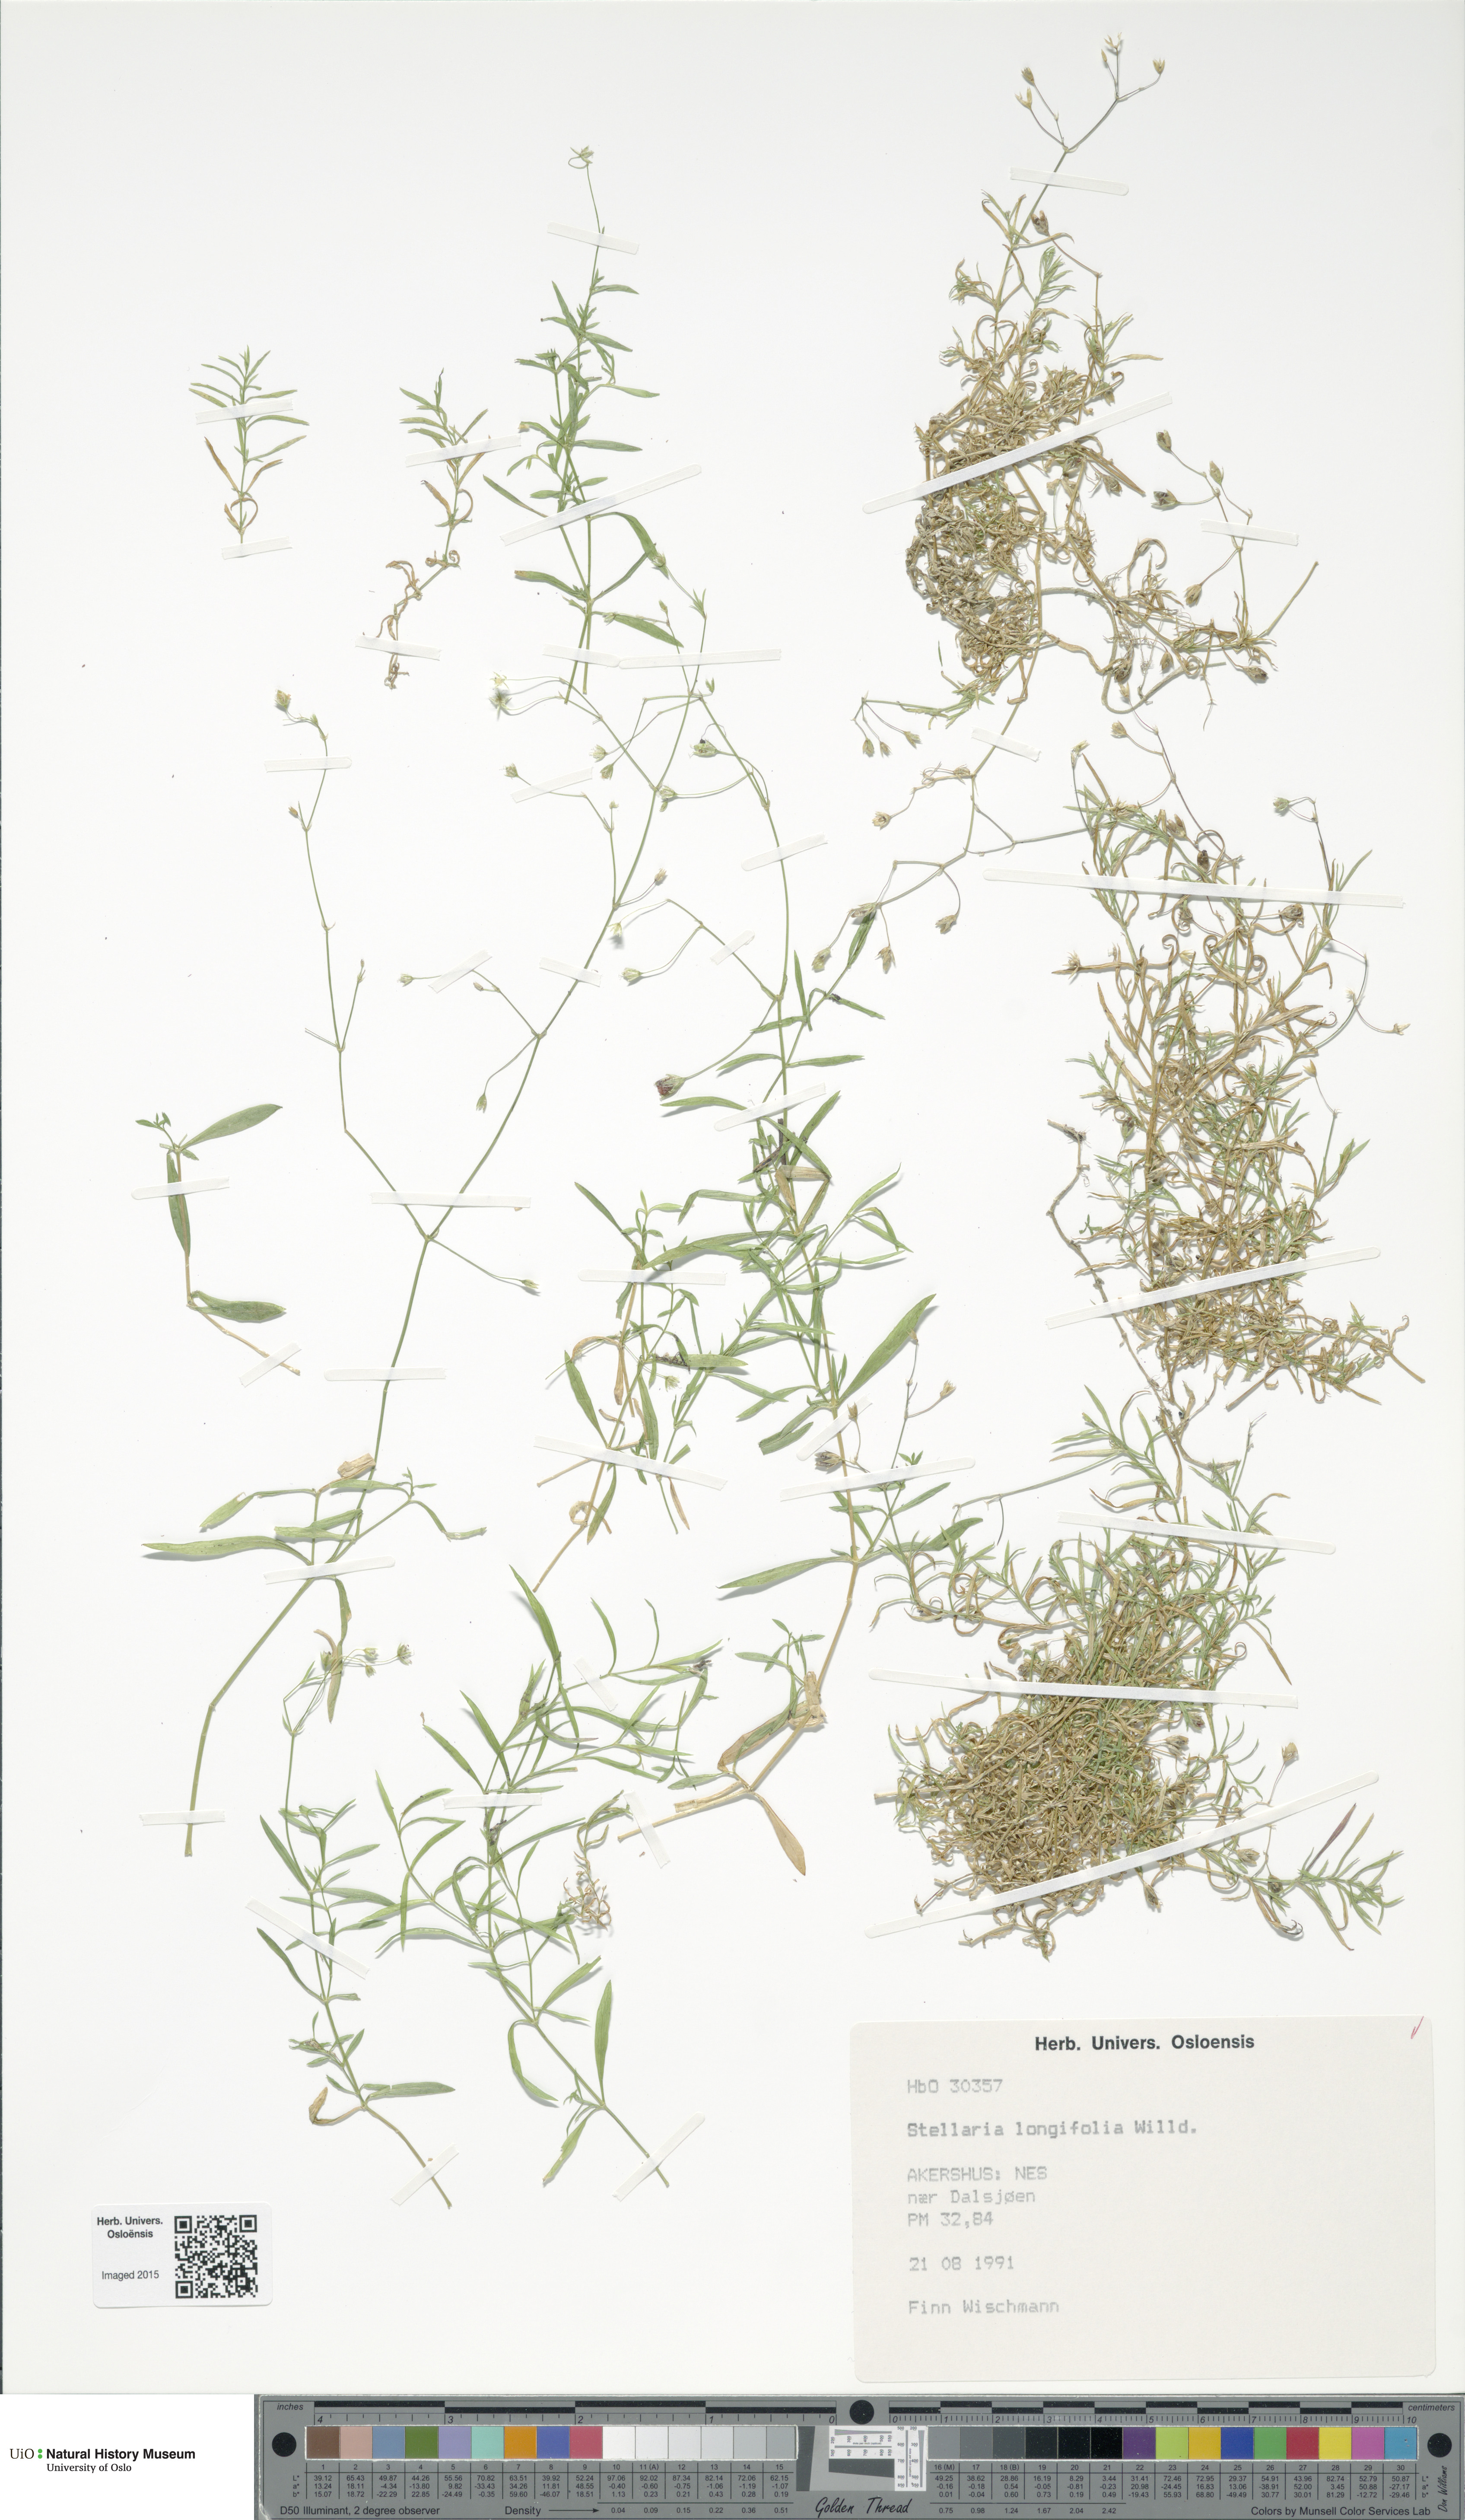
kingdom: Plantae
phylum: Tracheophyta
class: Magnoliopsida
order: Caryophyllales
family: Caryophyllaceae
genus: Stellaria
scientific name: Stellaria longifolia
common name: Long-leaved chickweed
